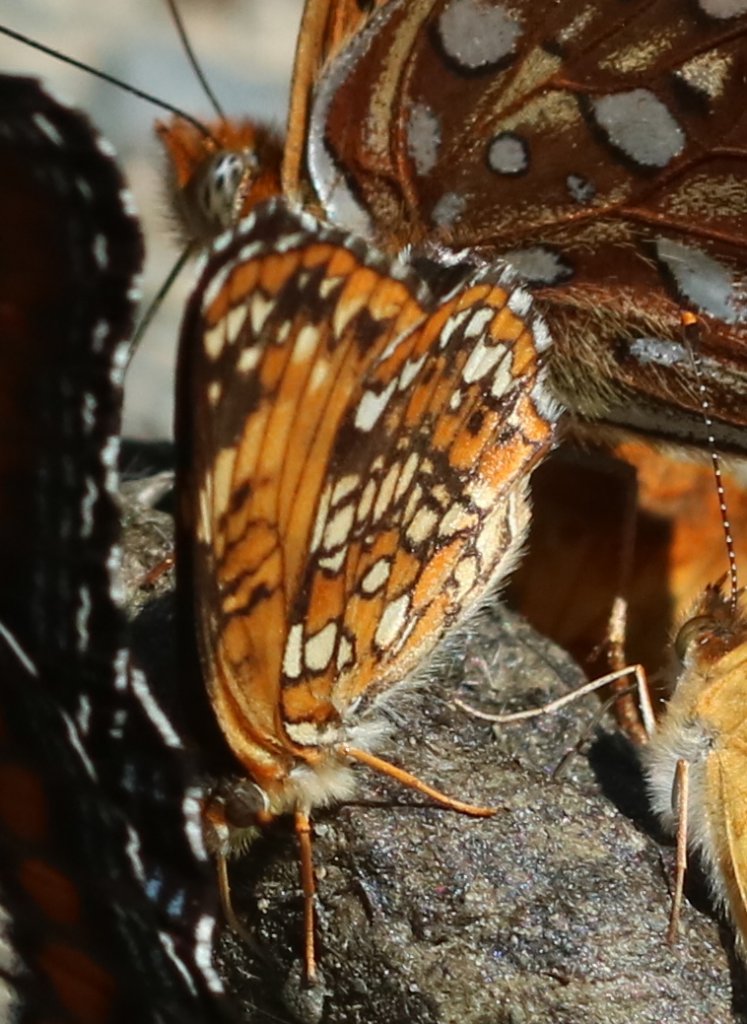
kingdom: Animalia
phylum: Arthropoda
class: Insecta
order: Lepidoptera
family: Nymphalidae
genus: Chlosyne
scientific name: Chlosyne harrisii
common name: Harris's Checkerspot
